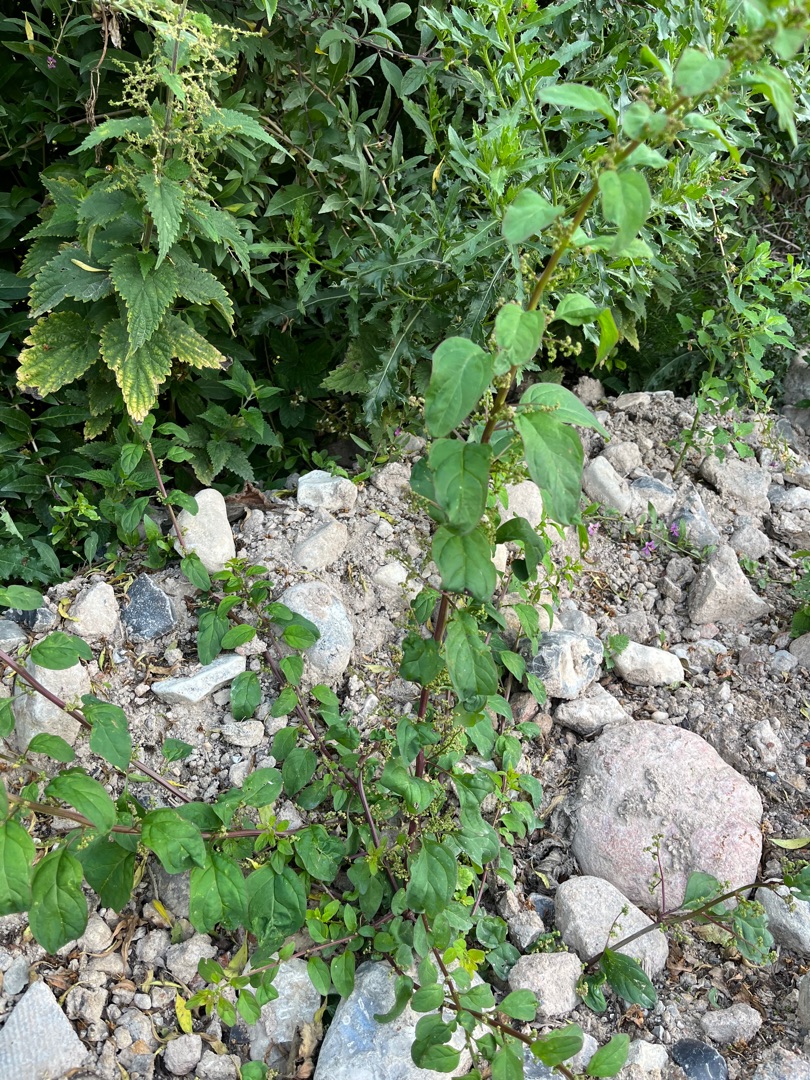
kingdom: Plantae
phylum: Tracheophyta
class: Magnoliopsida
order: Caryophyllales
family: Amaranthaceae
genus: Lipandra
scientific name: Lipandra polysperma
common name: Mangefrøet gåsefod
